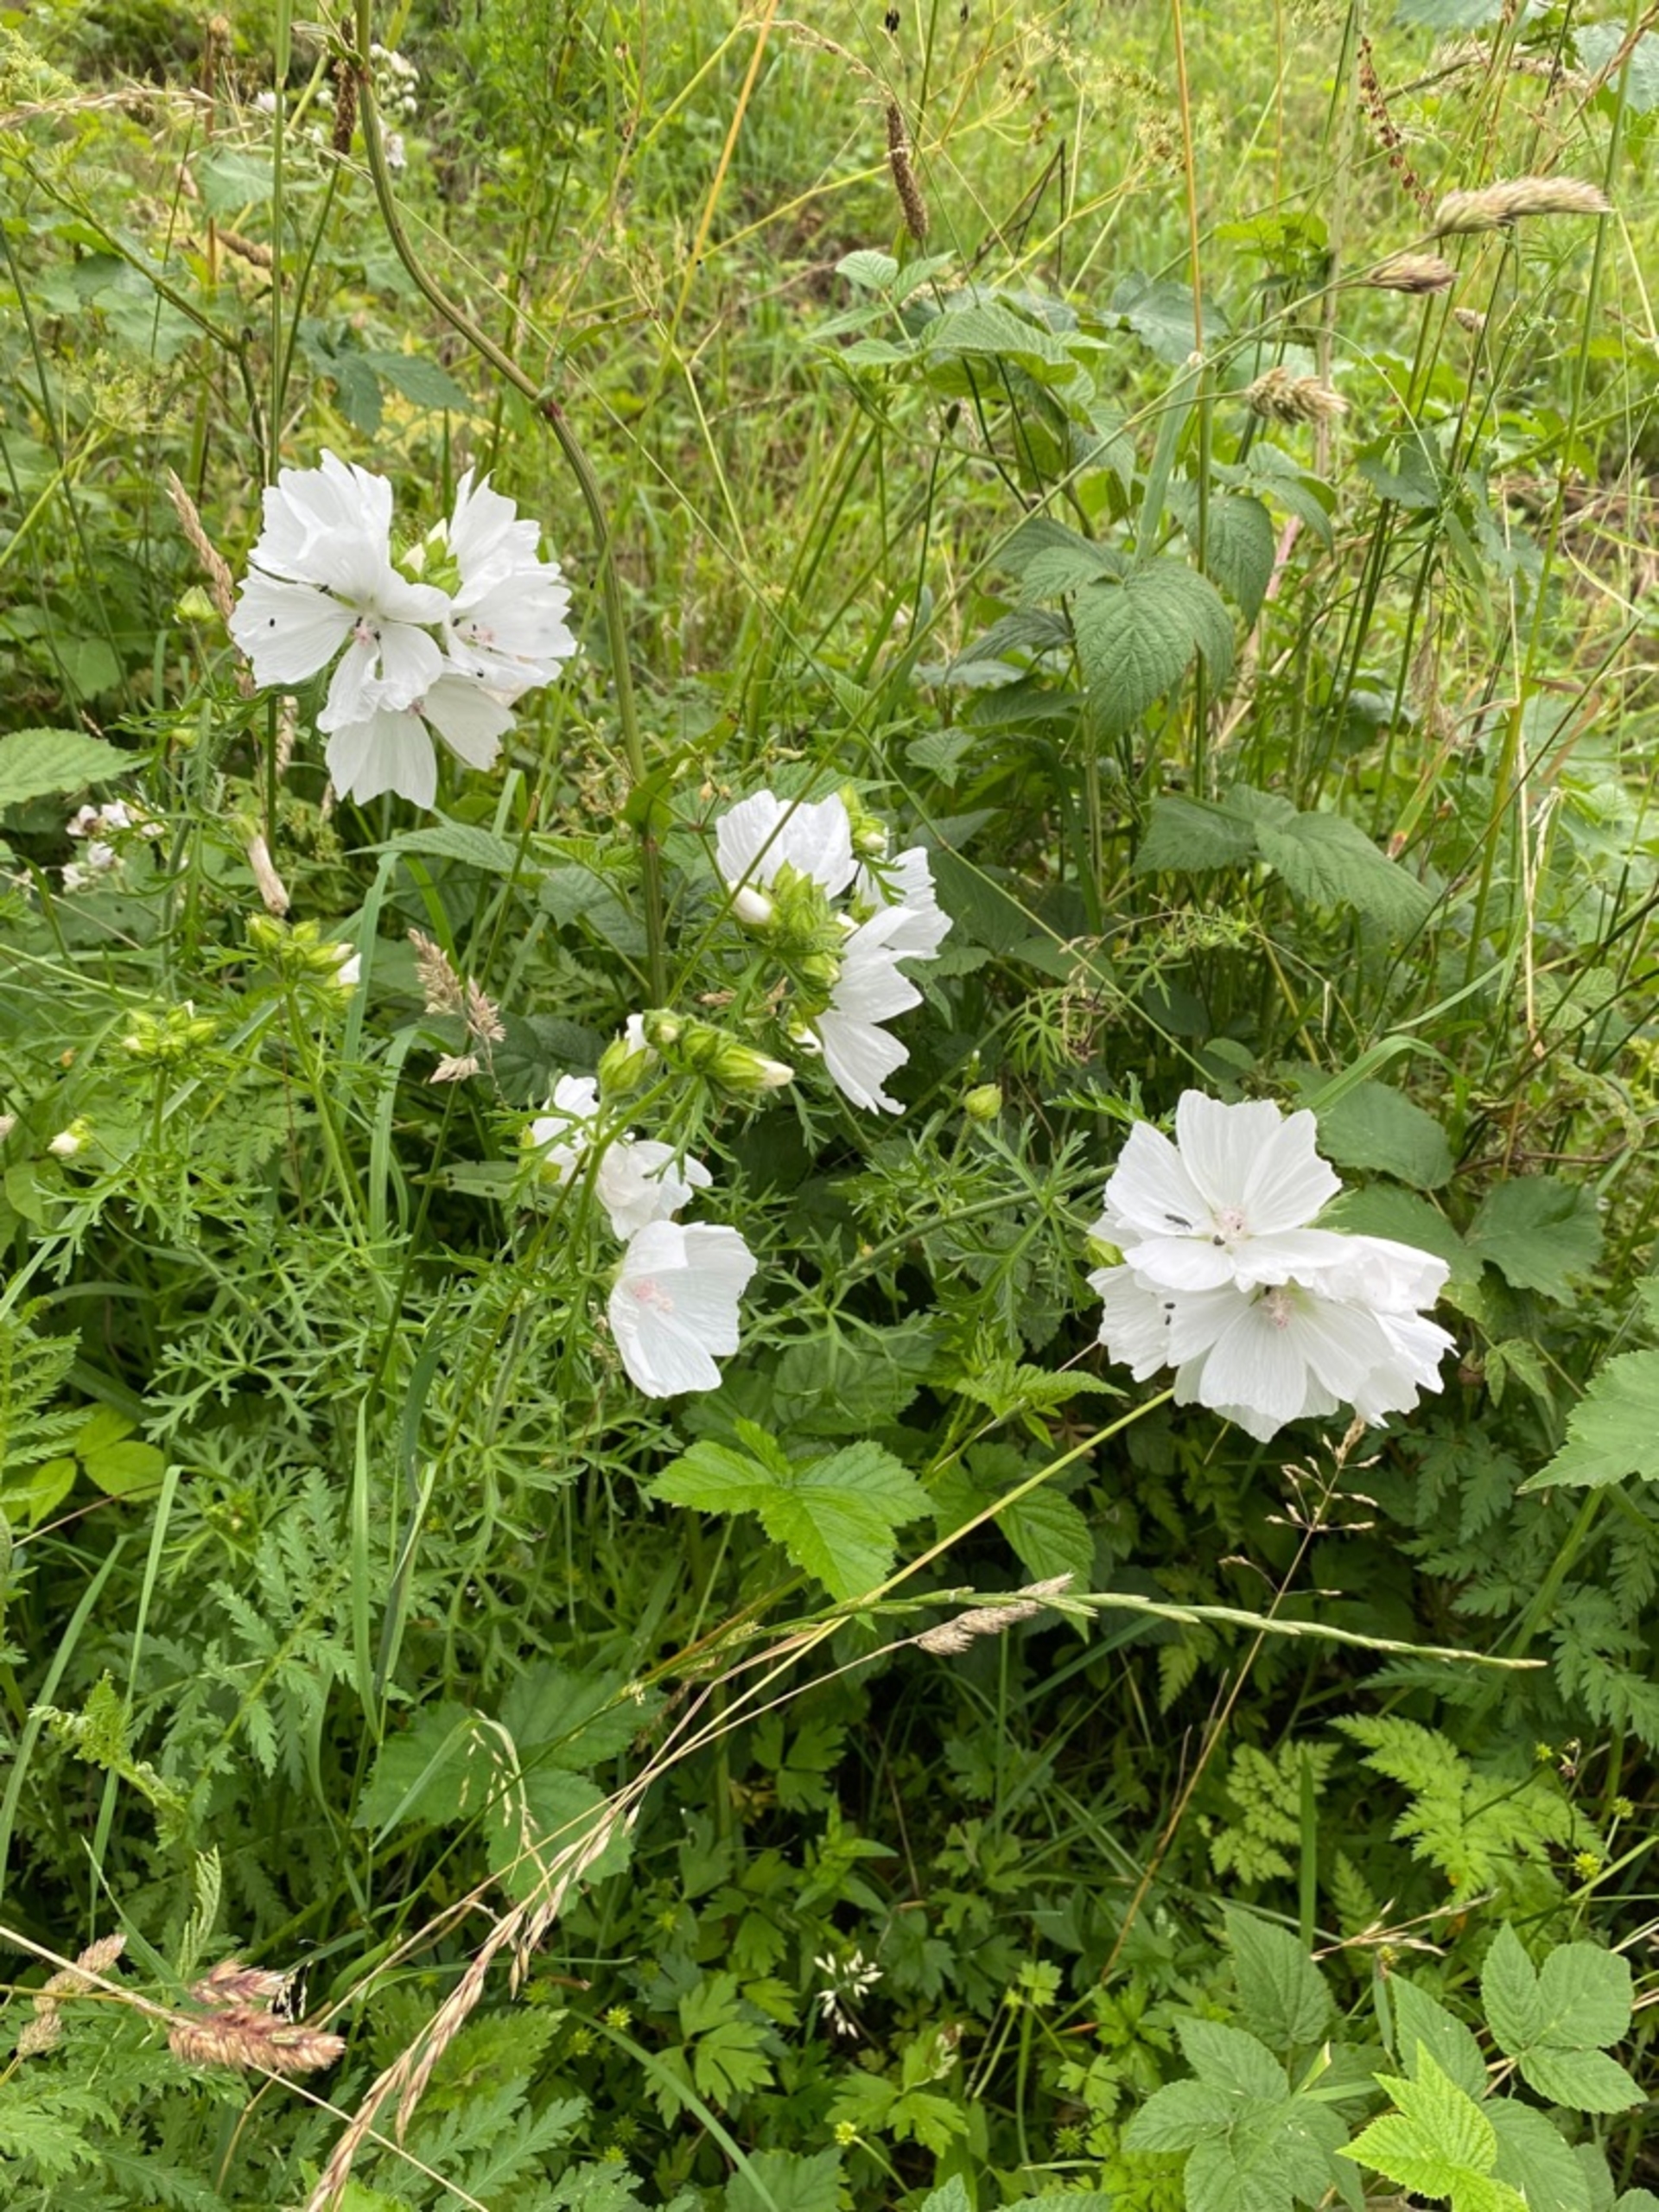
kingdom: Plantae
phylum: Tracheophyta
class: Magnoliopsida
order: Malvales
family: Malvaceae
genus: Malva
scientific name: Malva moschata
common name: Moskus-katost
